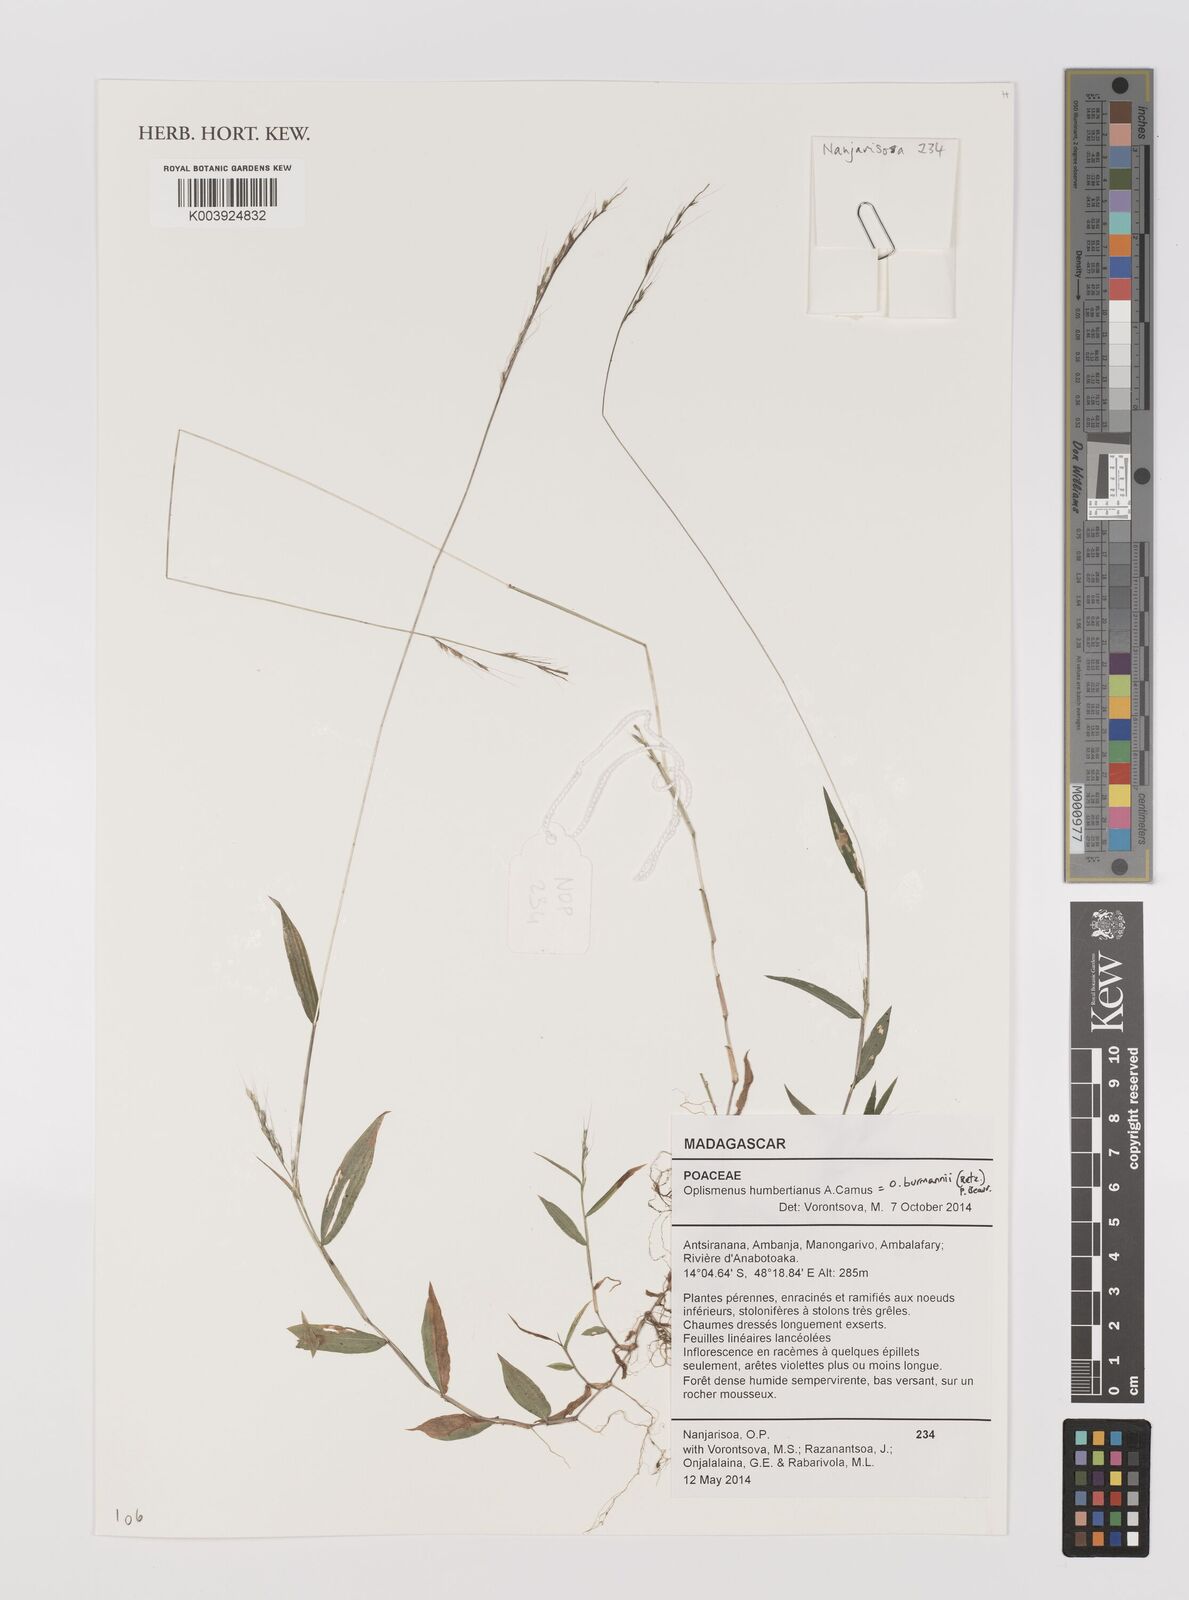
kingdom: Plantae
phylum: Tracheophyta
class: Liliopsida
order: Poales
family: Poaceae
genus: Oplismenus
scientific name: Oplismenus burmanni
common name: Burmann's basketgrass
